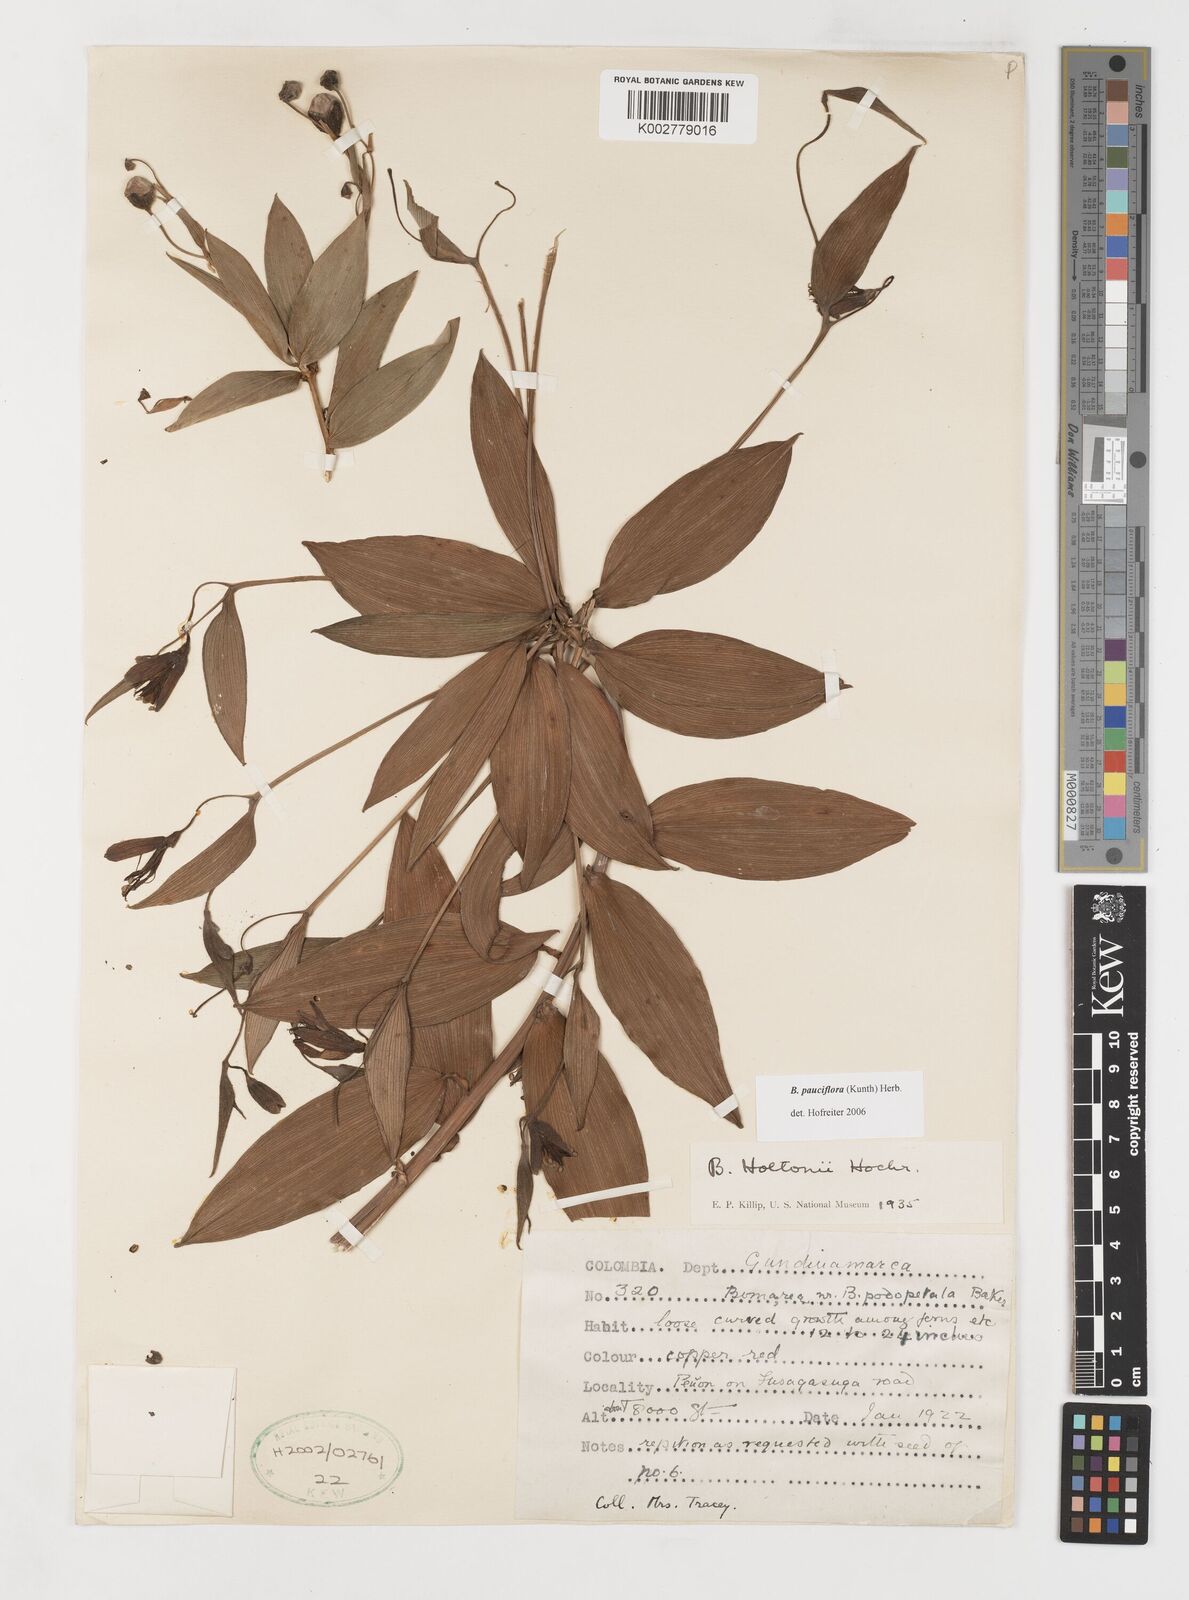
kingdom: Plantae
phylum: Tracheophyta
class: Liliopsida
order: Liliales
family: Alstroemeriaceae
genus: Bomarea
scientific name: Bomarea pauciflora
